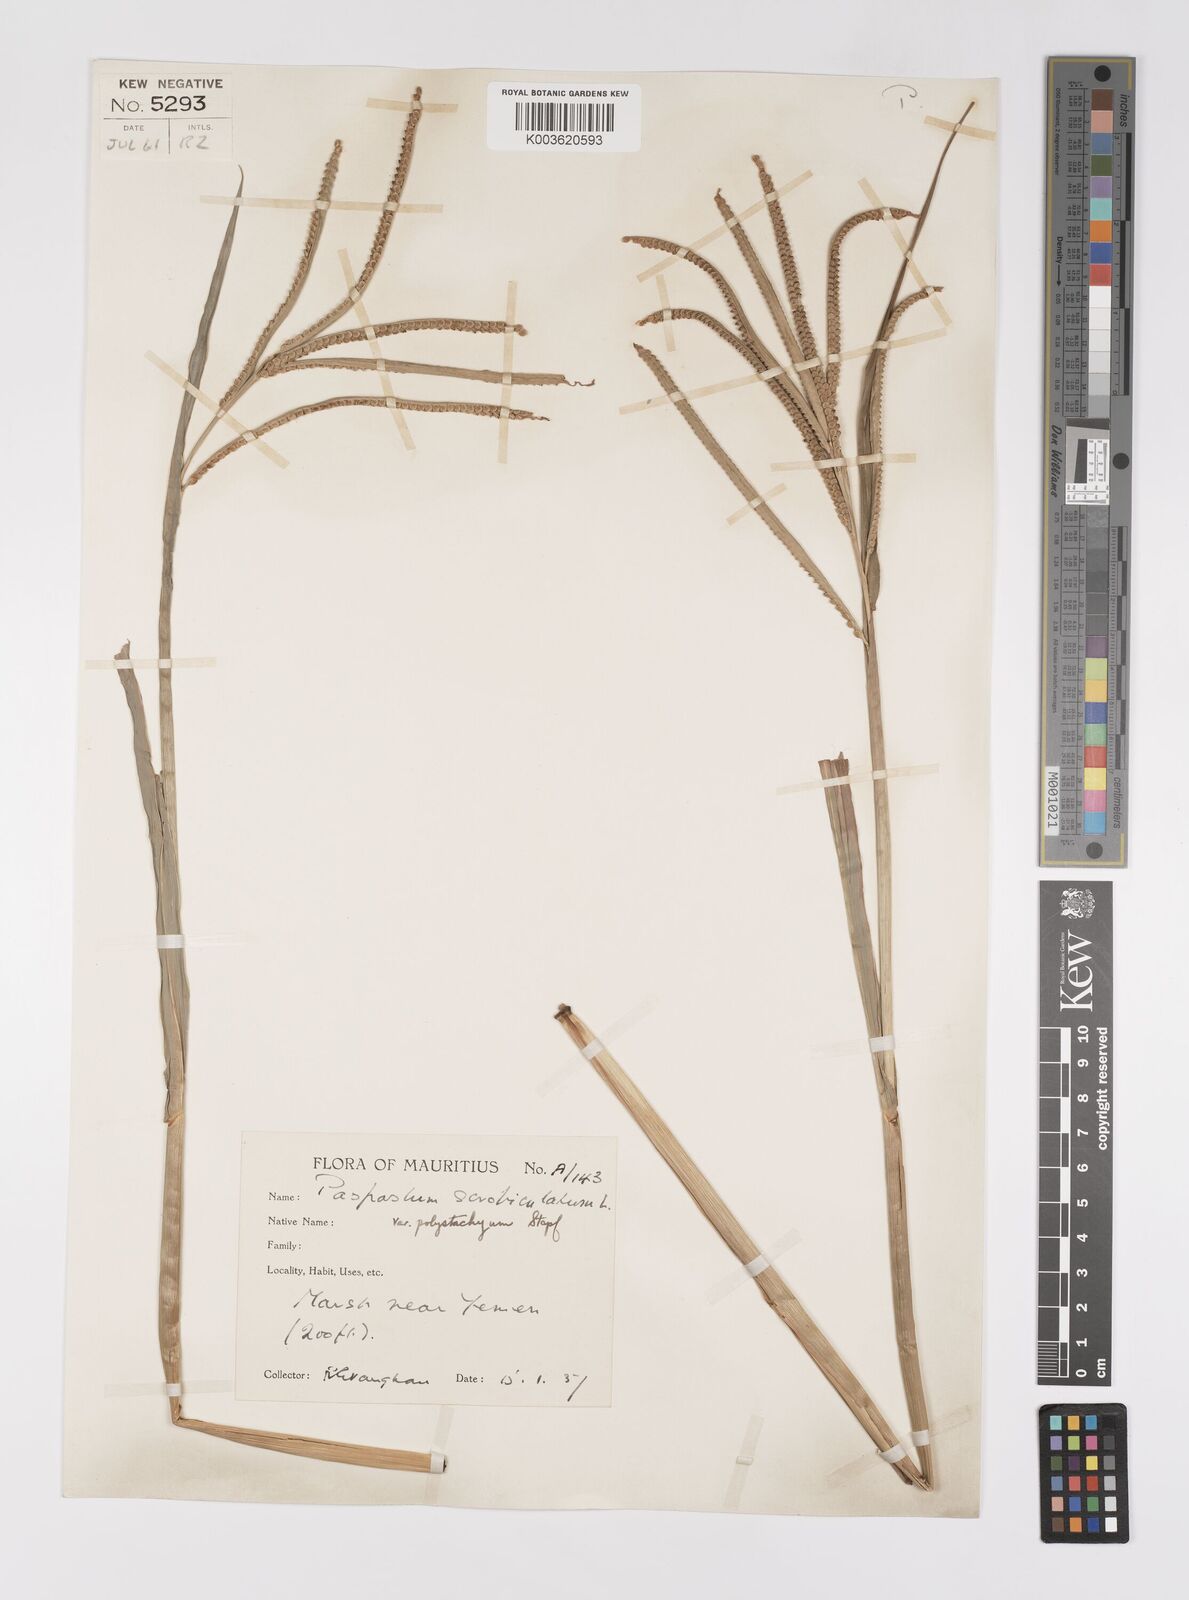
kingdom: Plantae
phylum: Tracheophyta
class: Liliopsida
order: Poales
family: Poaceae
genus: Paspalum
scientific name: Paspalum scrobiculatum
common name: Kodo millet
